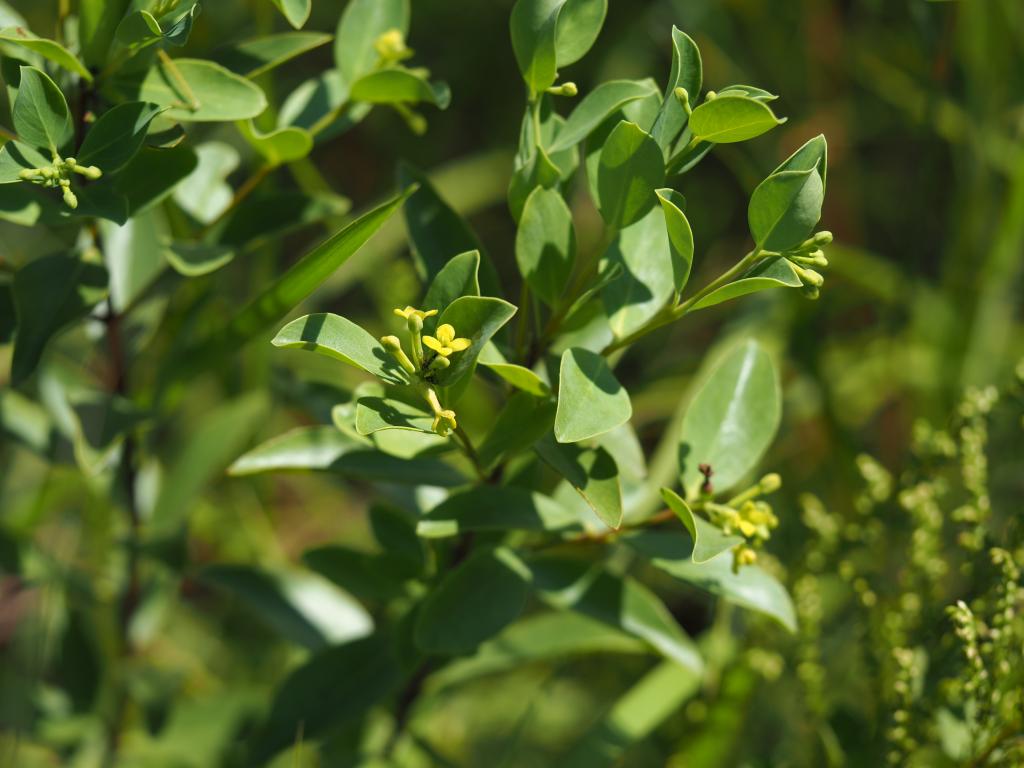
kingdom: Plantae
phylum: Tracheophyta
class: Magnoliopsida
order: Malvales
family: Thymelaeaceae
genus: Wikstroemia
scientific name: Wikstroemia indica
